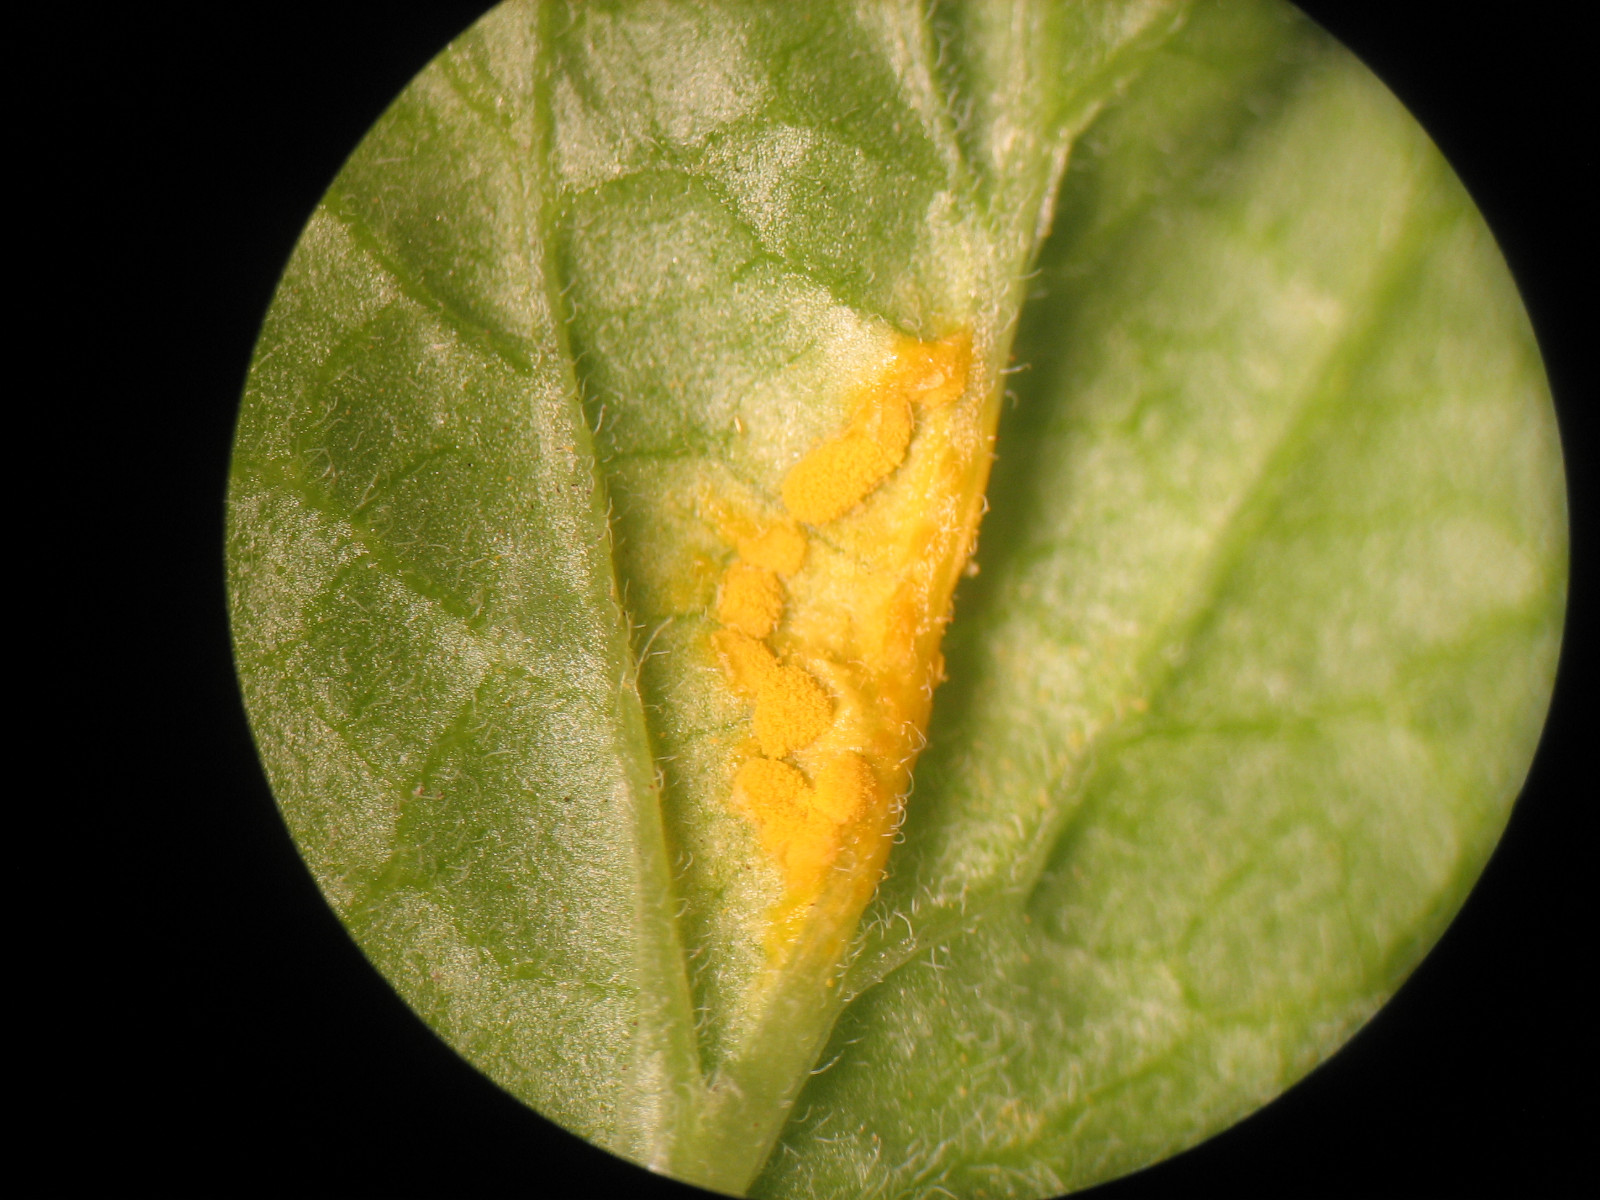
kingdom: Fungi
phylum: Basidiomycota
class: Pucciniomycetes
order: Pucciniales
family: Melampsoraceae
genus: Melampsora
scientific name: Melampsora epitea
